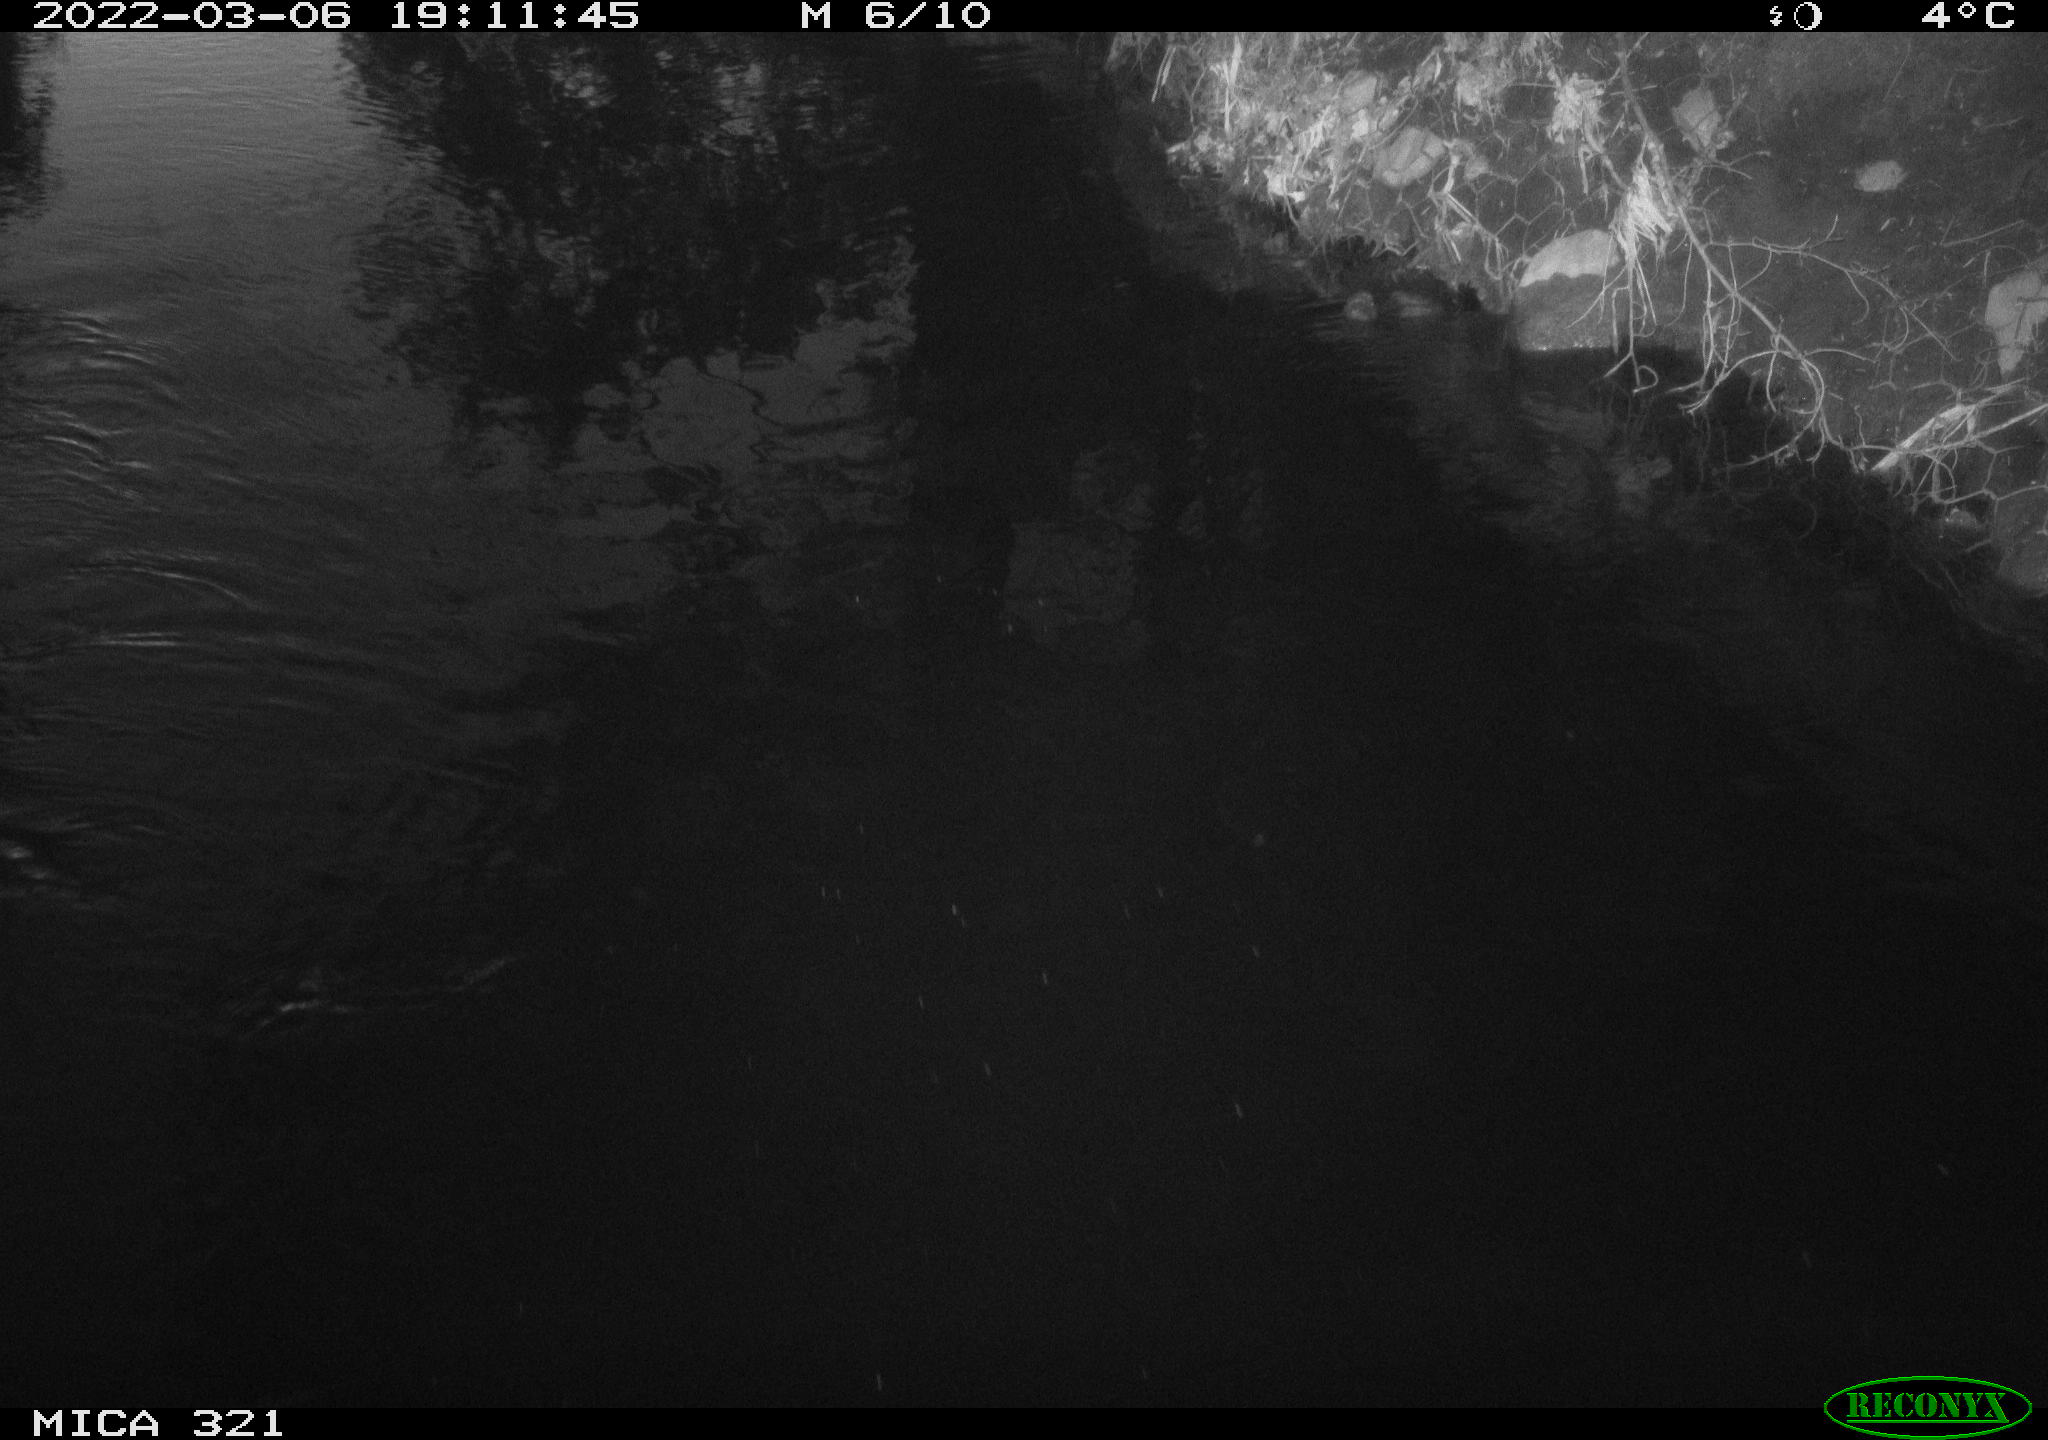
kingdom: Animalia
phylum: Chordata
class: Aves
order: Anseriformes
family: Anatidae
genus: Anas
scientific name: Anas platyrhynchos
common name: Mallard
